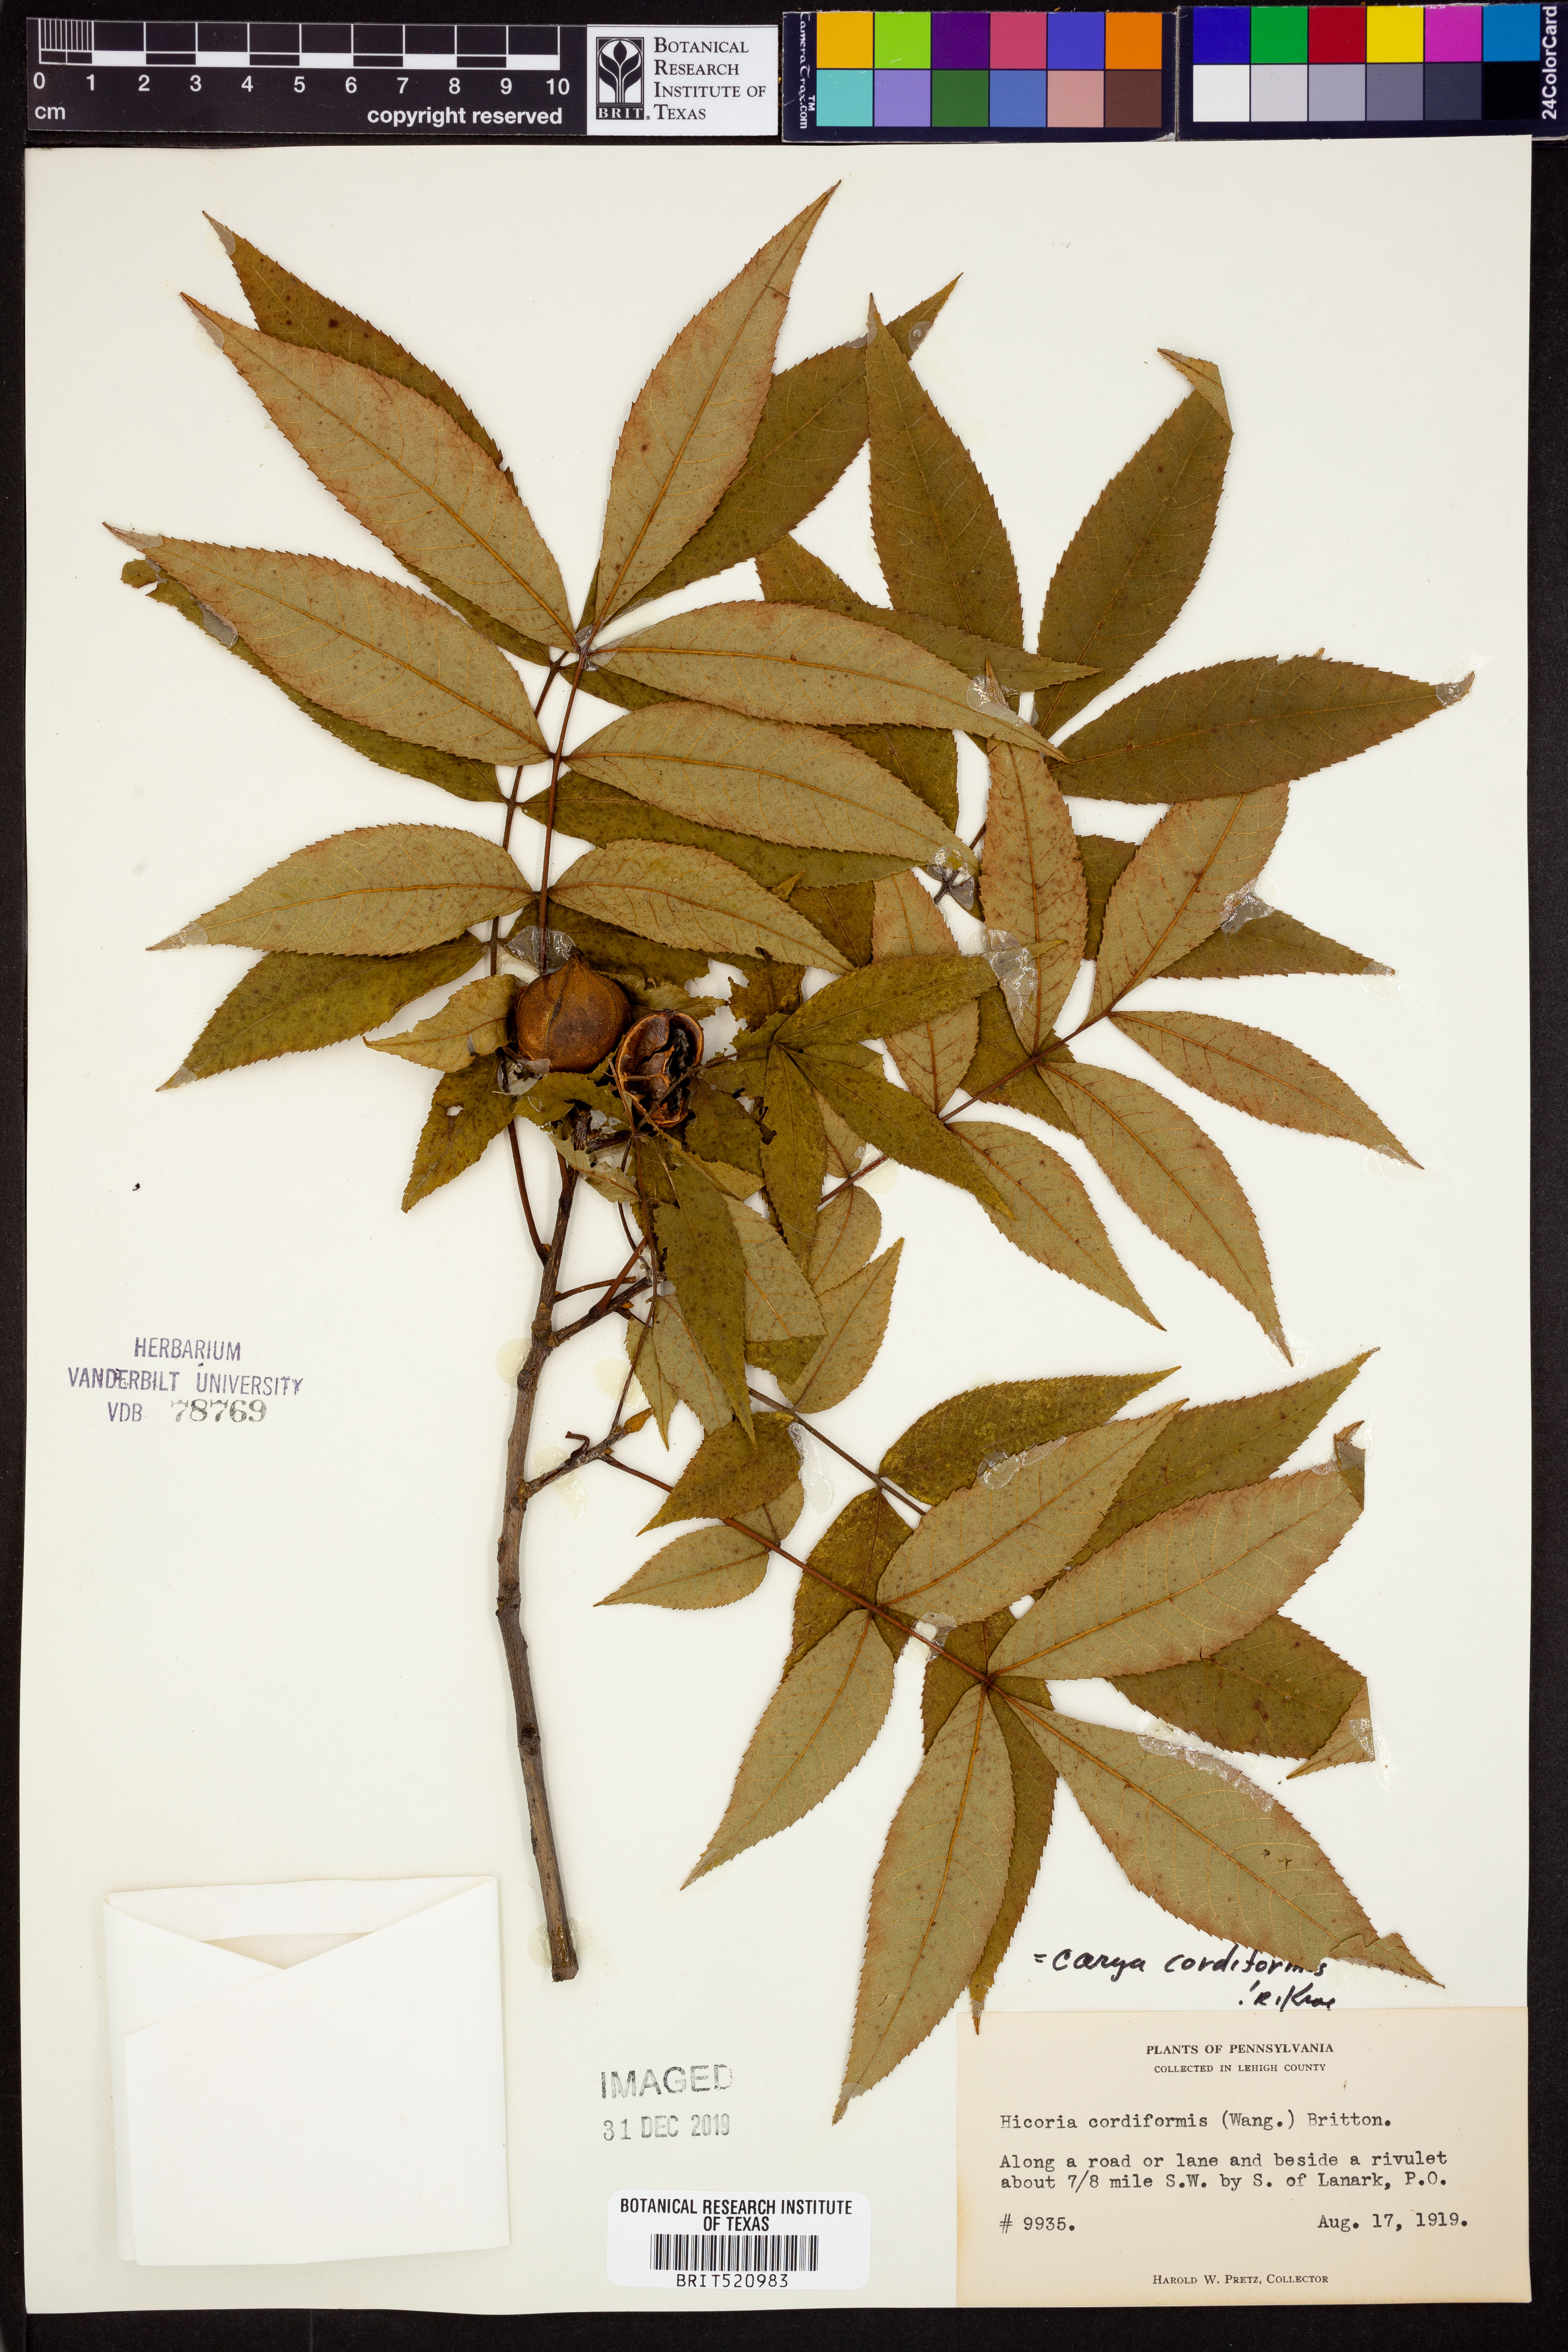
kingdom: Plantae
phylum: Tracheophyta
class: Magnoliopsida
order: Fagales
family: Juglandaceae
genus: Carya
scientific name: Carya cordiformis
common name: Bitternut hickory
